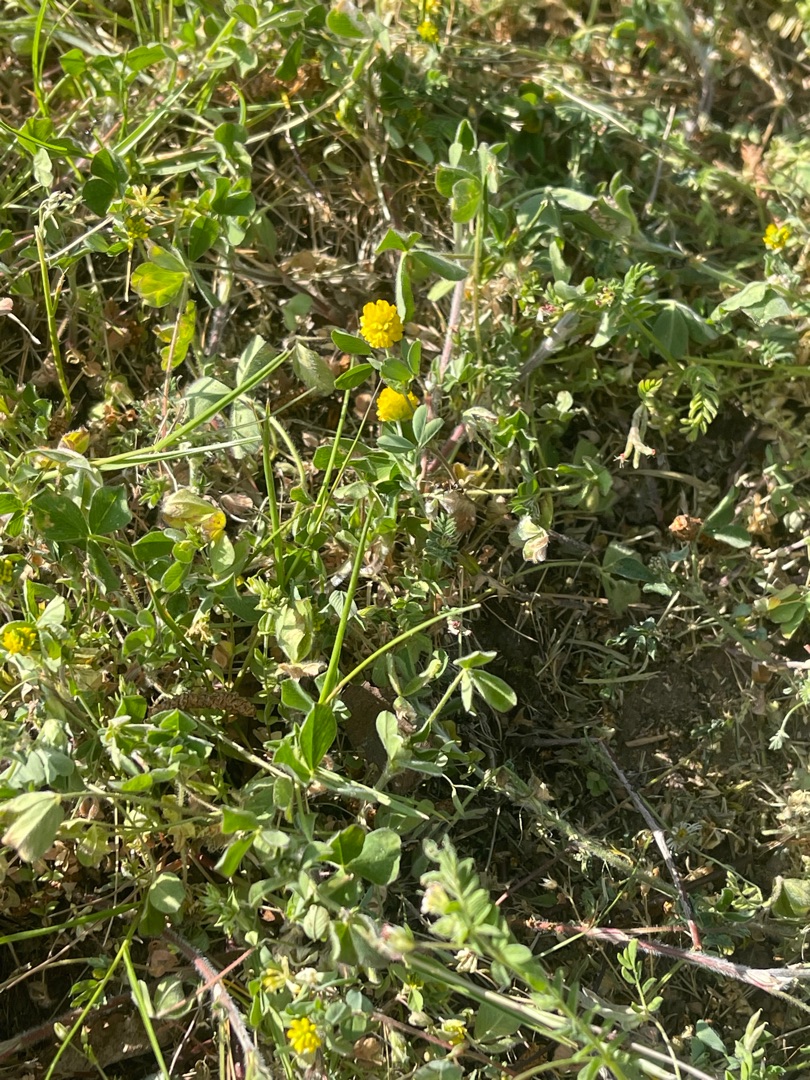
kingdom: Plantae
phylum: Tracheophyta
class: Magnoliopsida
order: Fabales
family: Fabaceae
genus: Trifolium
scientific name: Trifolium campestre
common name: Gul kløver
